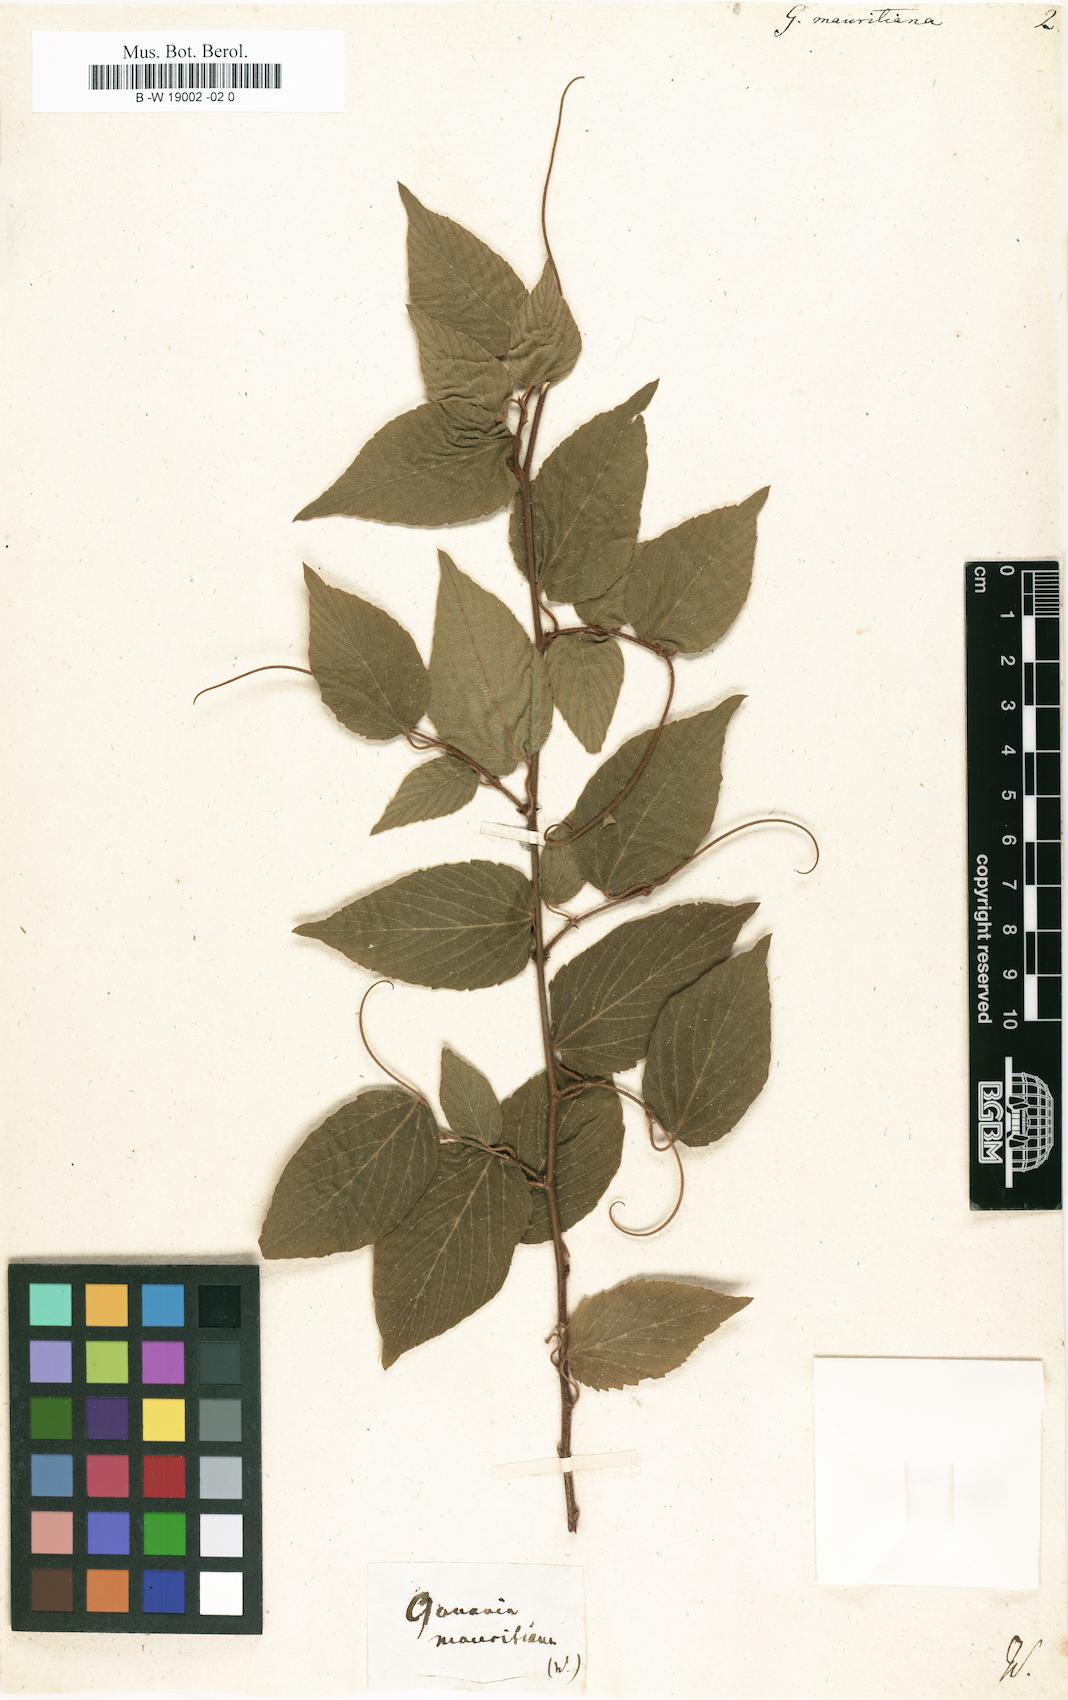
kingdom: Plantae
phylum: Tracheophyta
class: Magnoliopsida
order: Rosales
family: Rhamnaceae
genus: Gouania
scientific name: Gouania mauritiana
